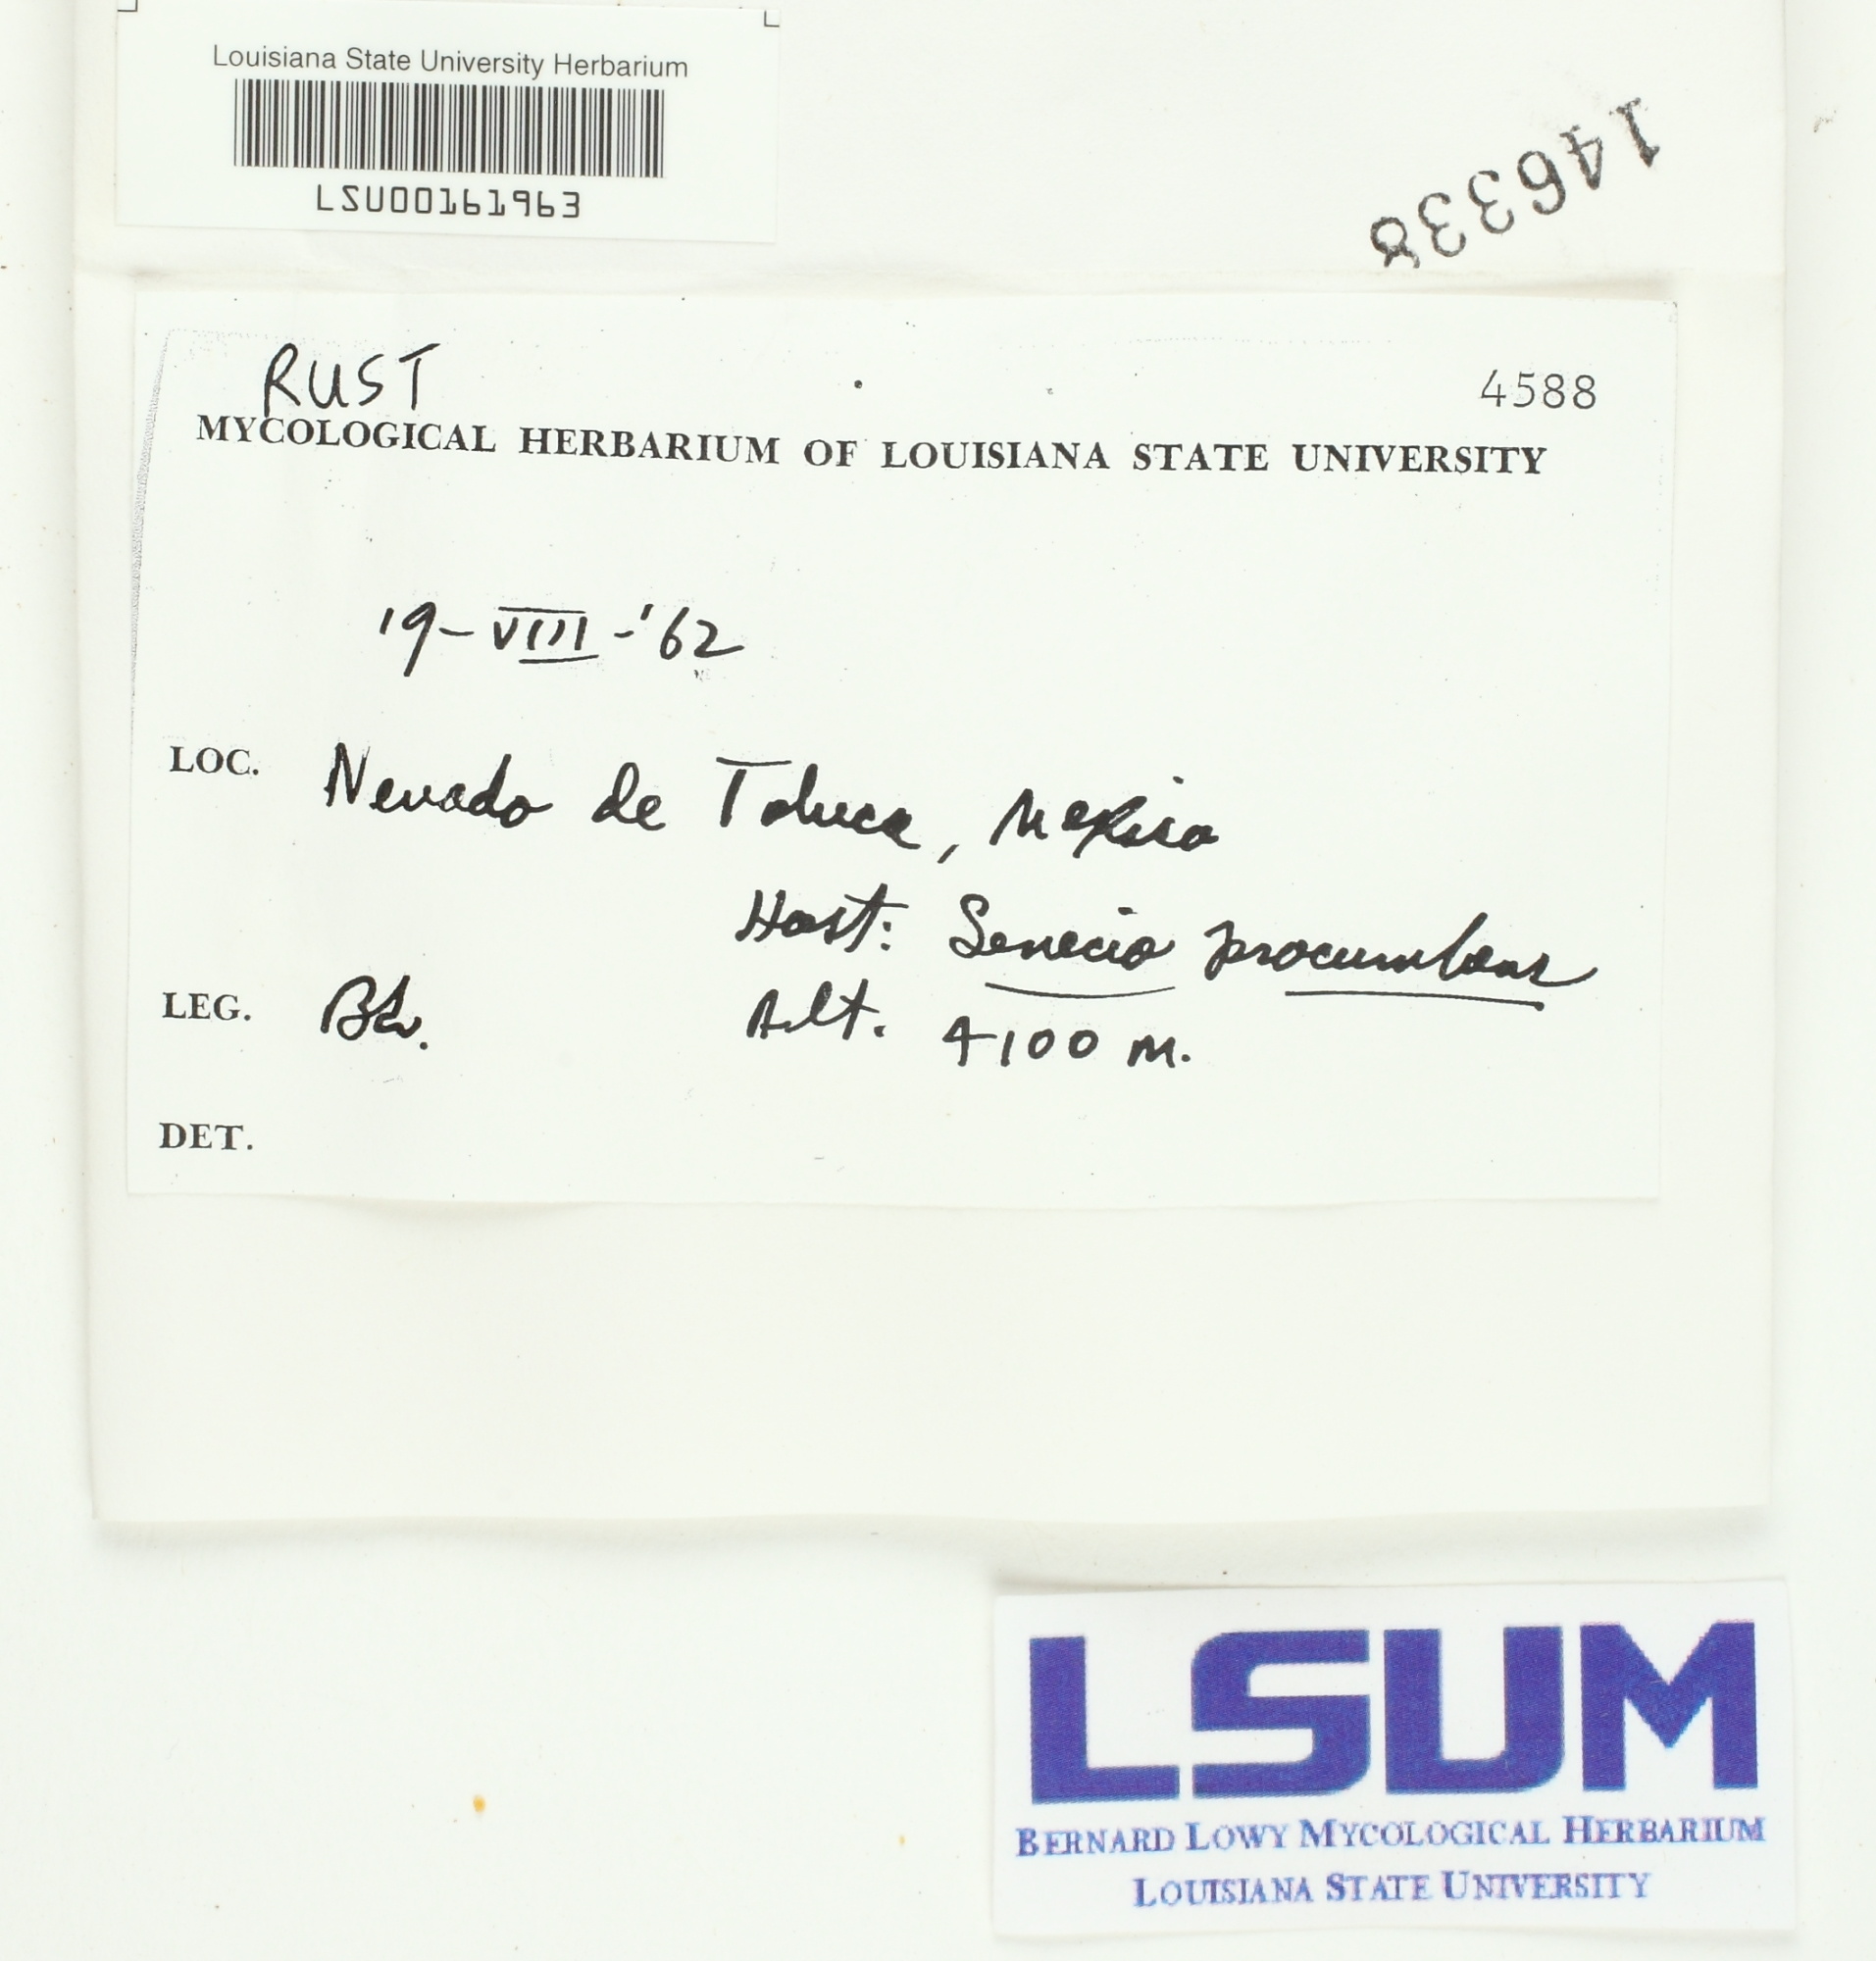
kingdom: Fungi
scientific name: Fungi
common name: Fungi
